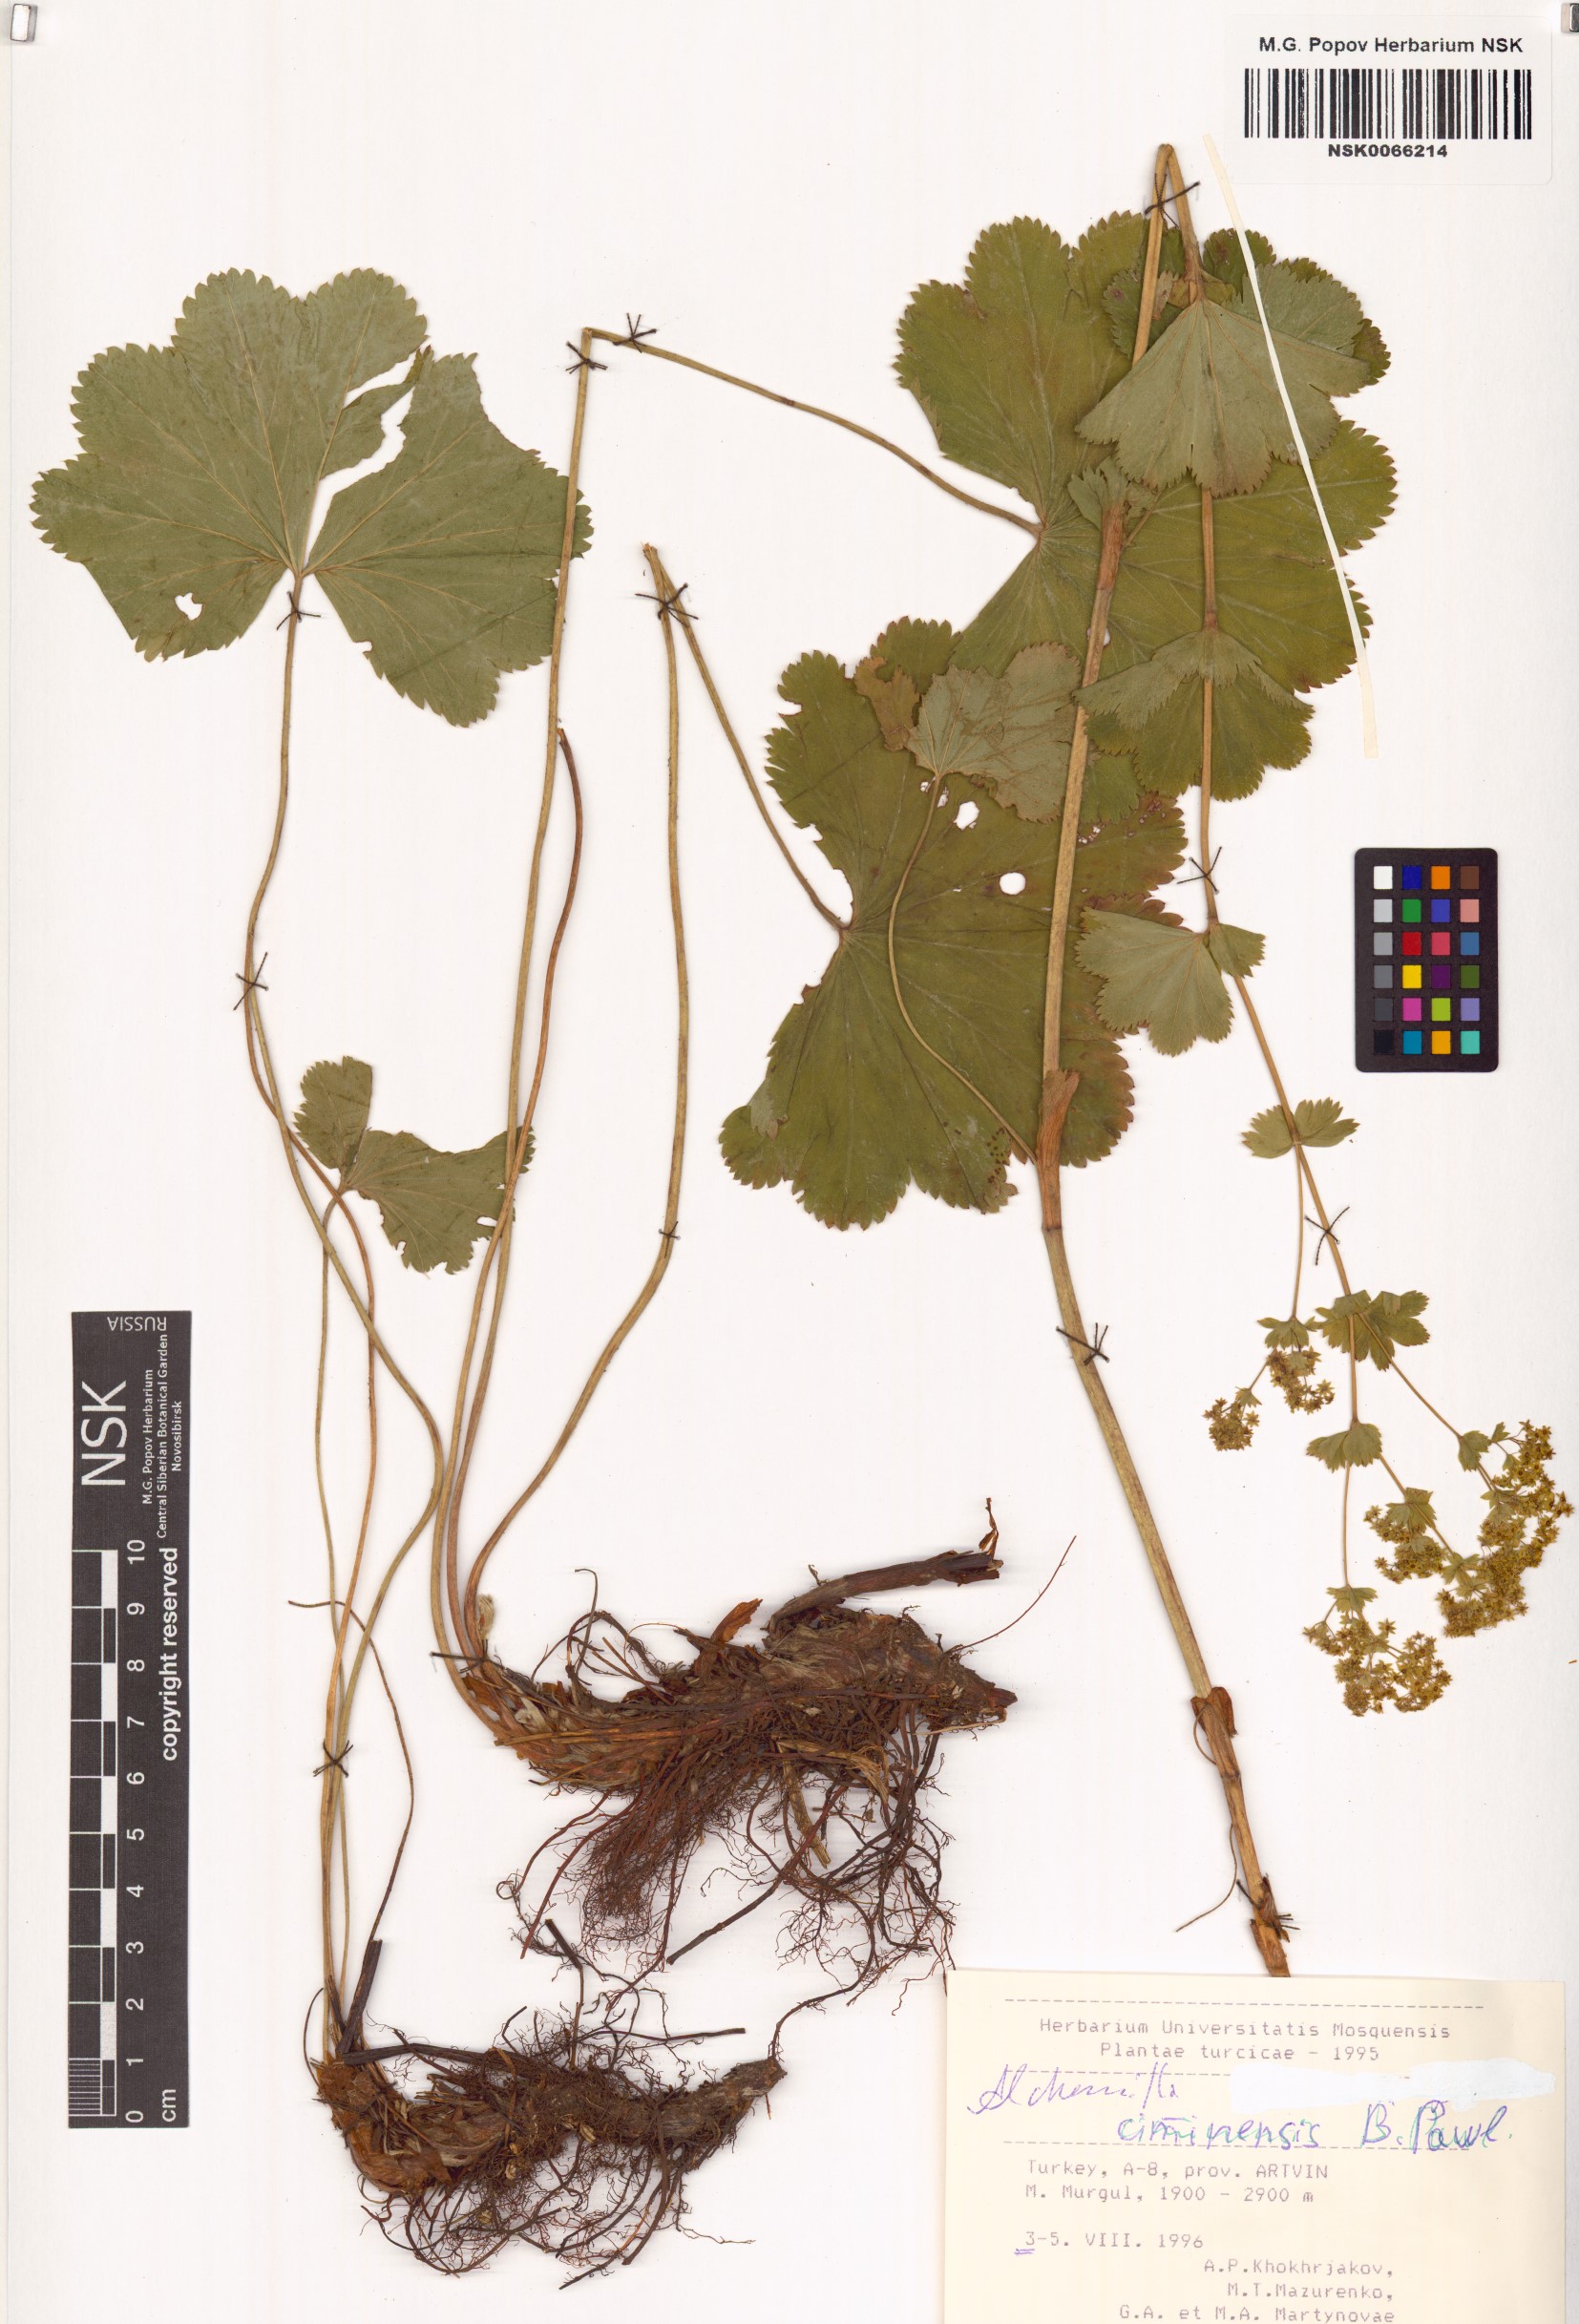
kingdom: Plantae
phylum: Tracheophyta
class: Magnoliopsida
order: Rosales
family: Rosaceae
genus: Alchemilla
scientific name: Alchemilla ciminensis
